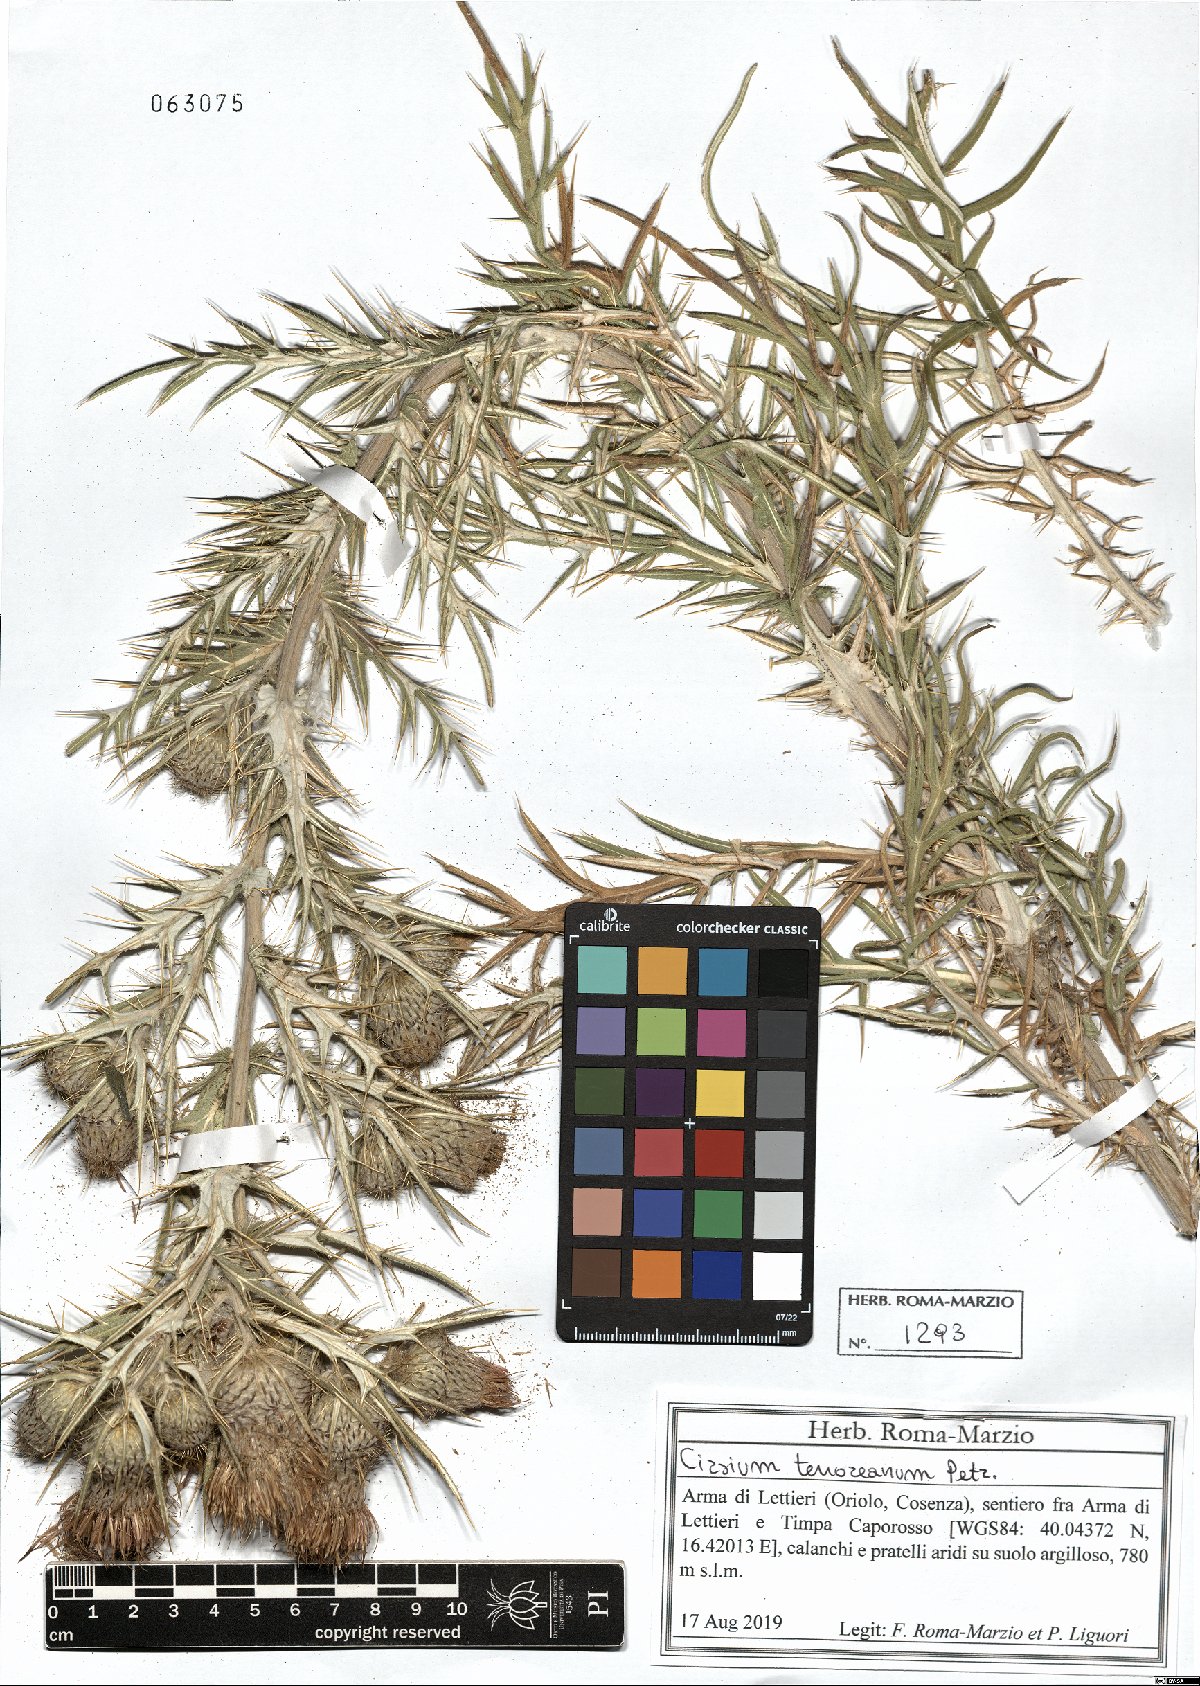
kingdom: Plantae
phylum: Tracheophyta
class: Magnoliopsida
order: Asterales
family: Asteraceae
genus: Lophiolepis
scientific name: Lophiolepis tenoreana
